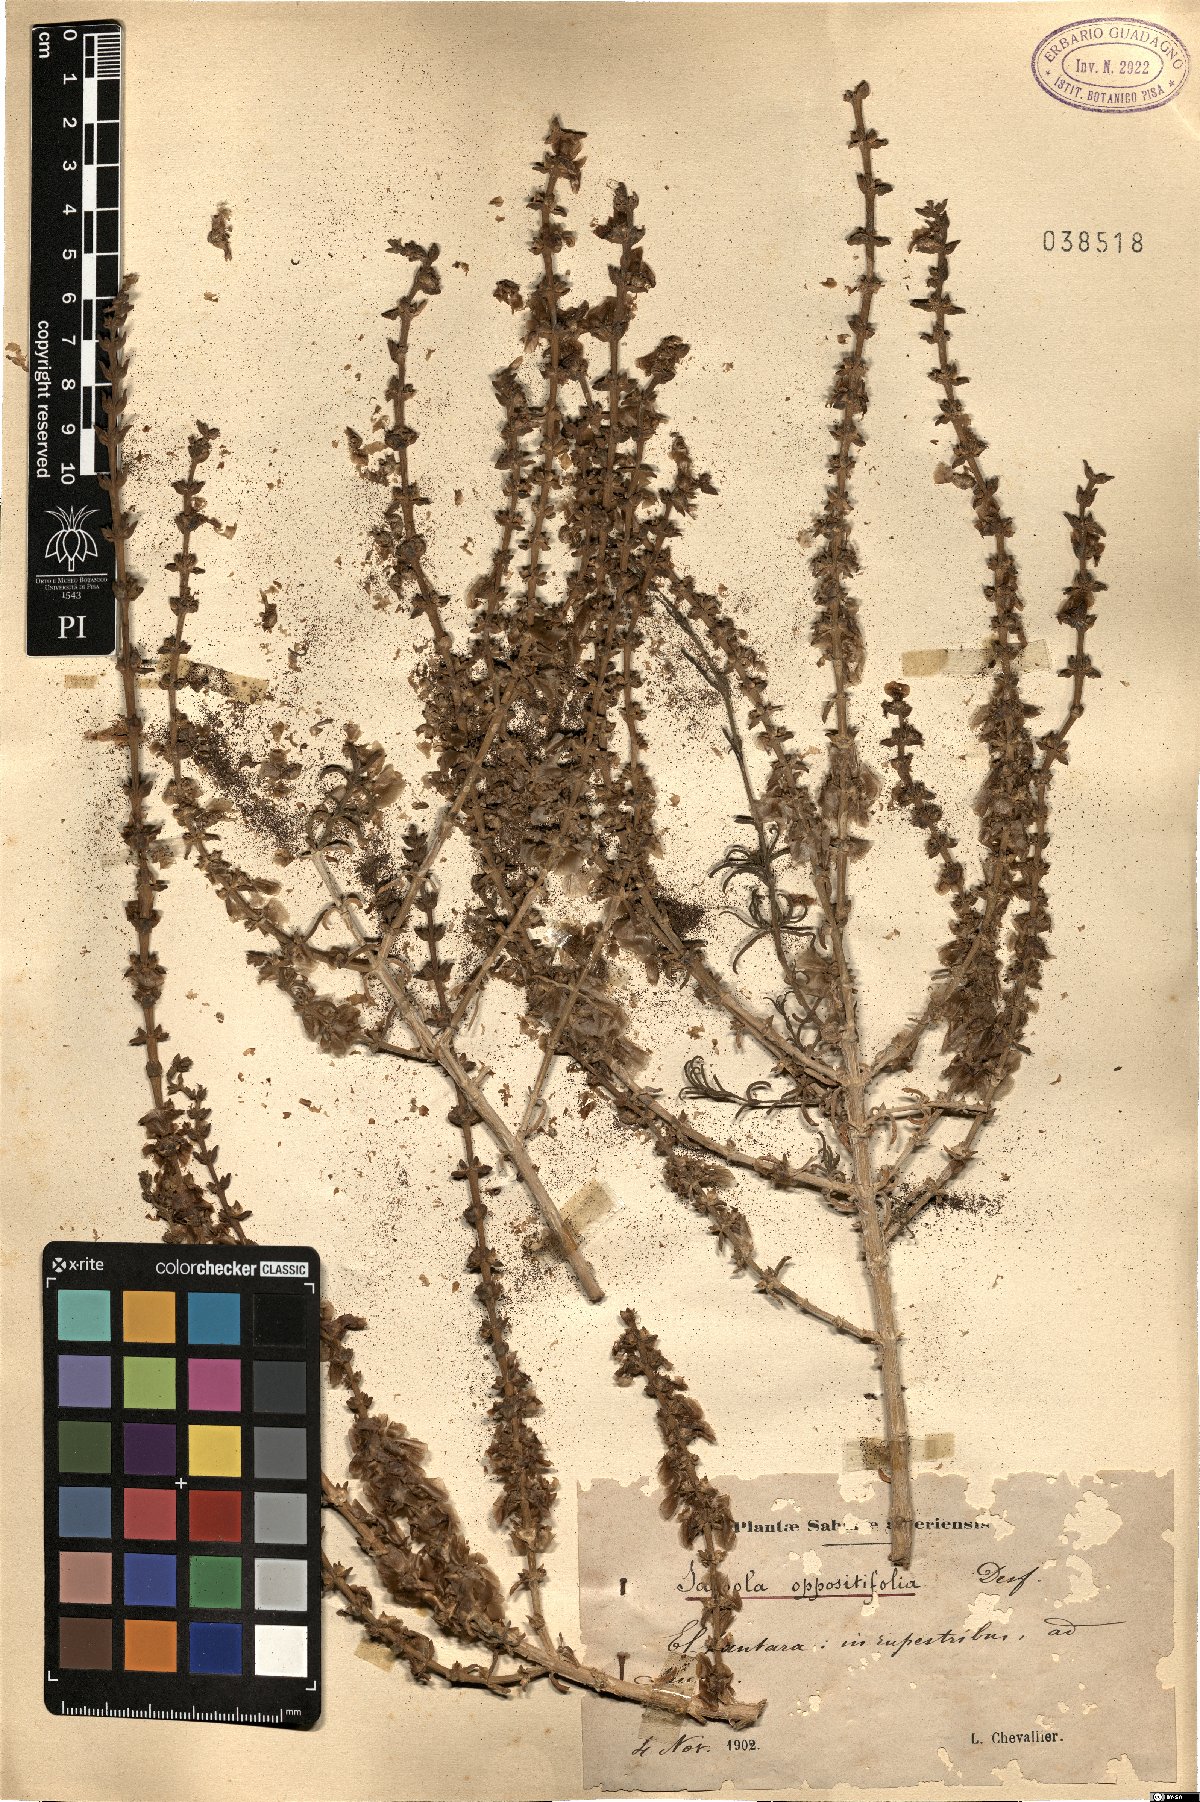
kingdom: Plantae
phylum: Tracheophyta
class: Magnoliopsida
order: Caryophyllales
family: Amaranthaceae
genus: Soda
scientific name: Soda oppositifolia
